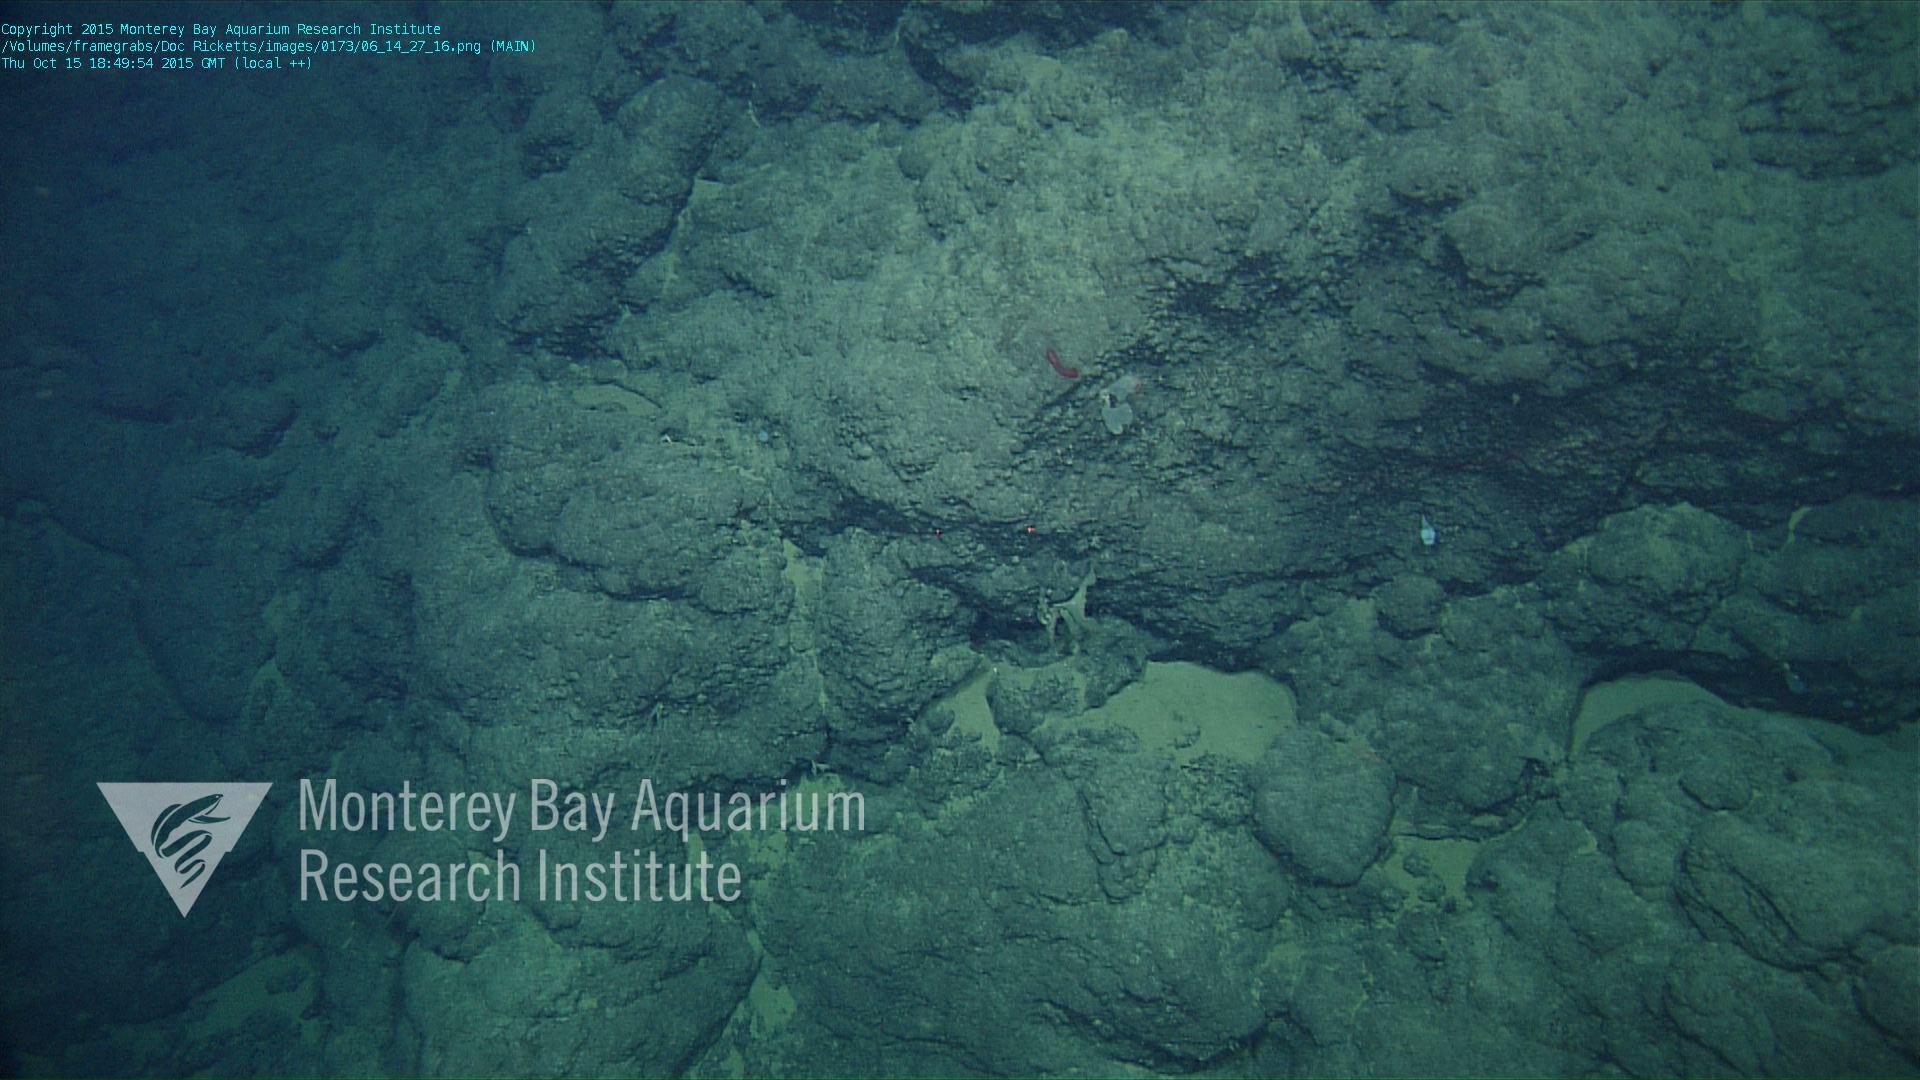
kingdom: Animalia
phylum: Porifera
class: Demospongiae
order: Poecilosclerida
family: Cladorhizidae
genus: Asbestopluma
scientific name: Asbestopluma
